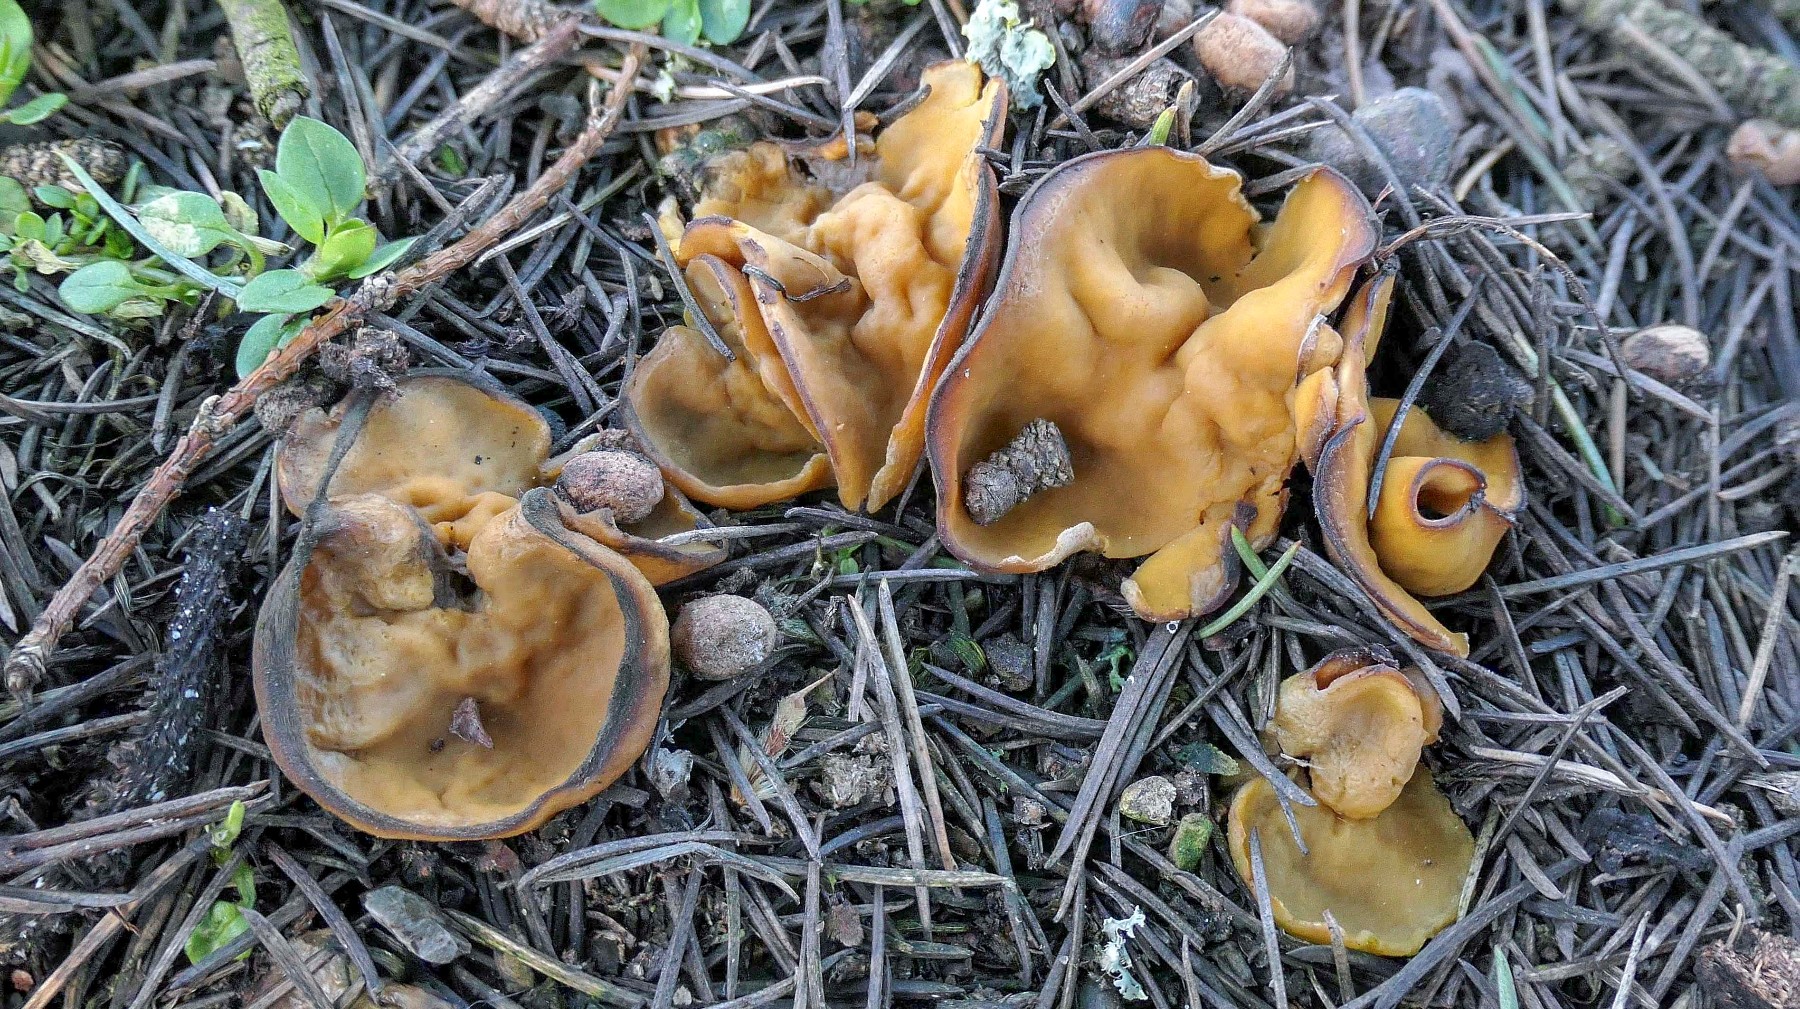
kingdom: Fungi
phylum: Ascomycota
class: Pezizomycetes
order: Pezizales
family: Pyronemataceae
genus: Sowerbyella
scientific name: Sowerbyella radiculata
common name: grøngul rodbæger
